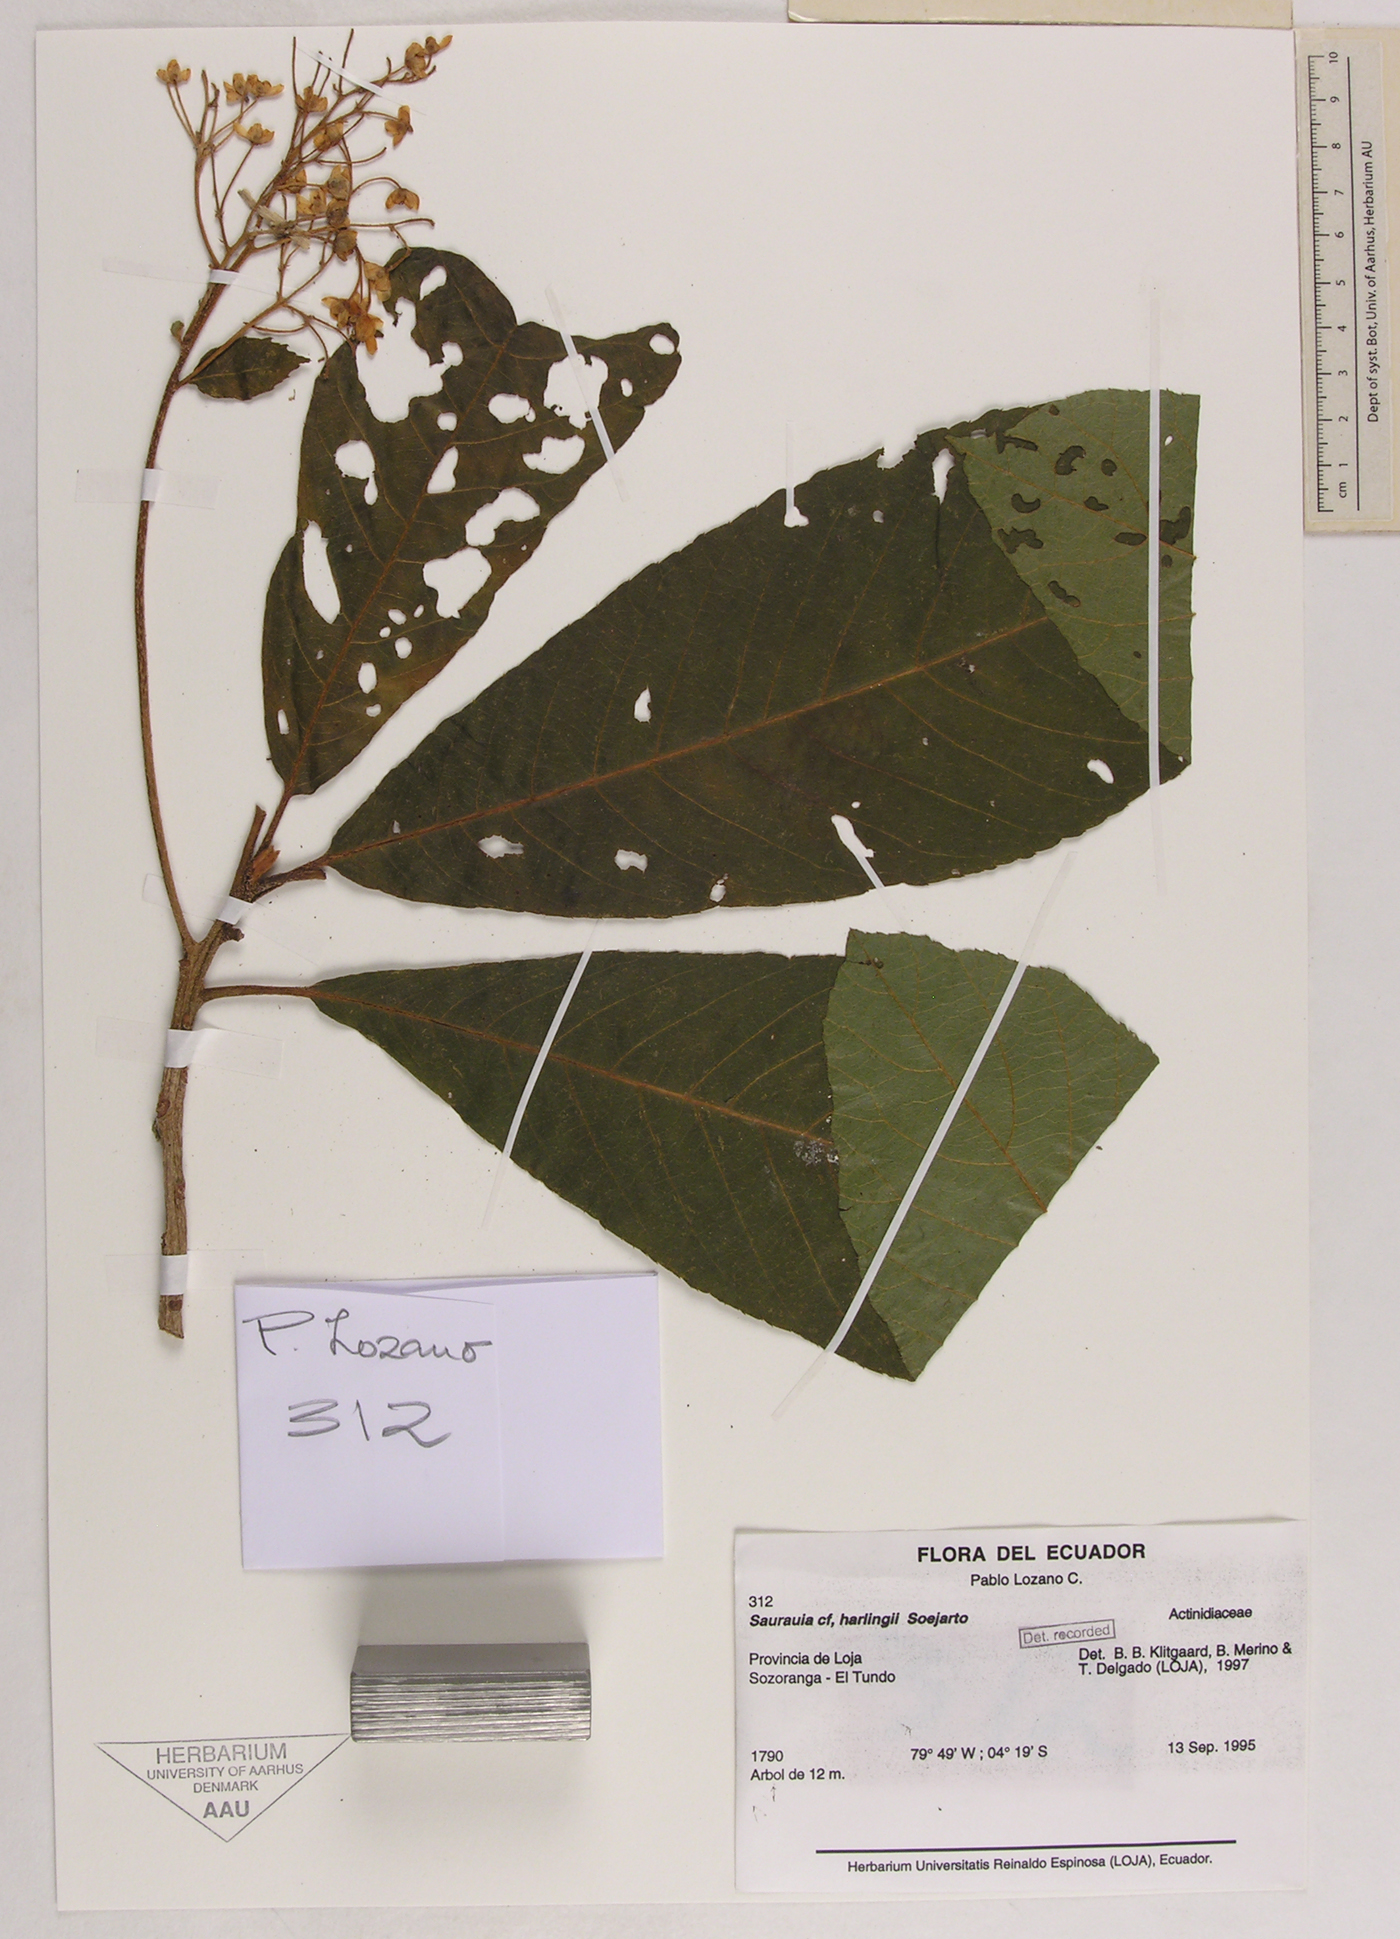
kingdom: Plantae
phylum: Tracheophyta
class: Magnoliopsida
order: Ericales
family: Actinidiaceae
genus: Saurauia
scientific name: Saurauia harlingii
